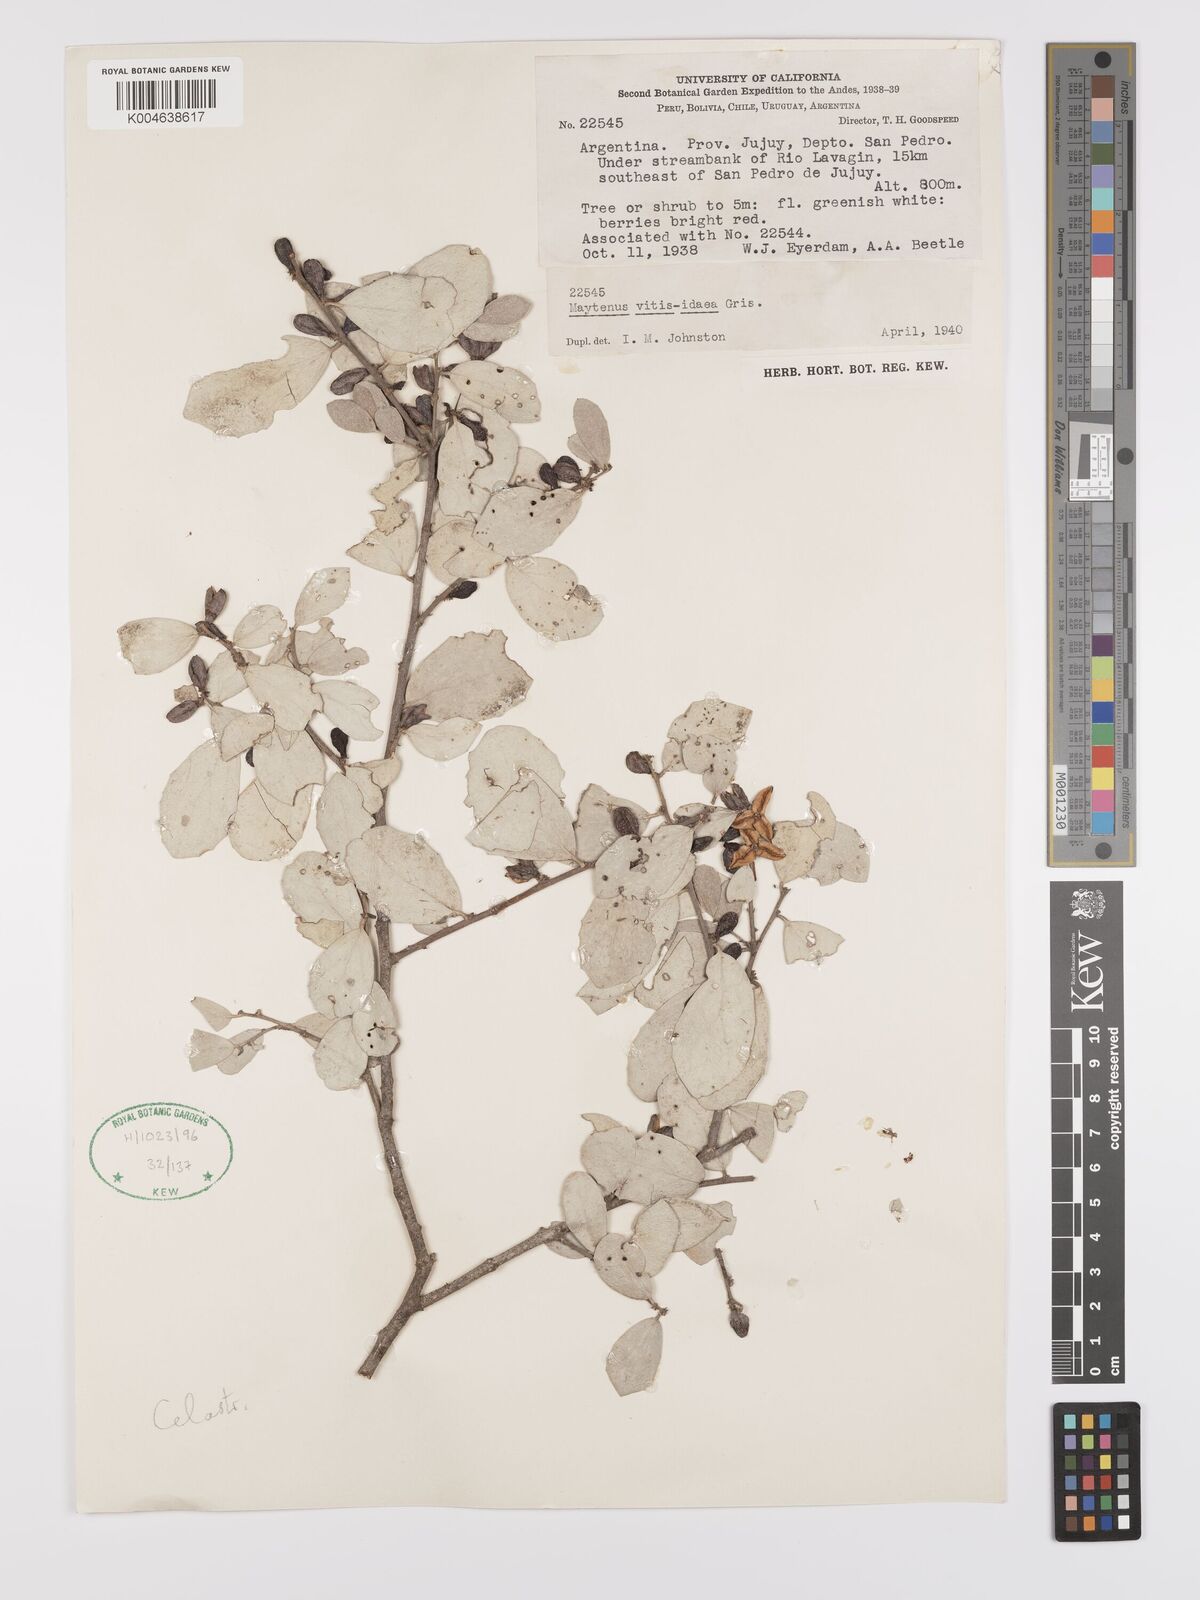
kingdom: Plantae
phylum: Tracheophyta
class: Magnoliopsida
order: Celastrales
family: Celastraceae
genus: Tricerma
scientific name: Tricerma vitis-idaeum
